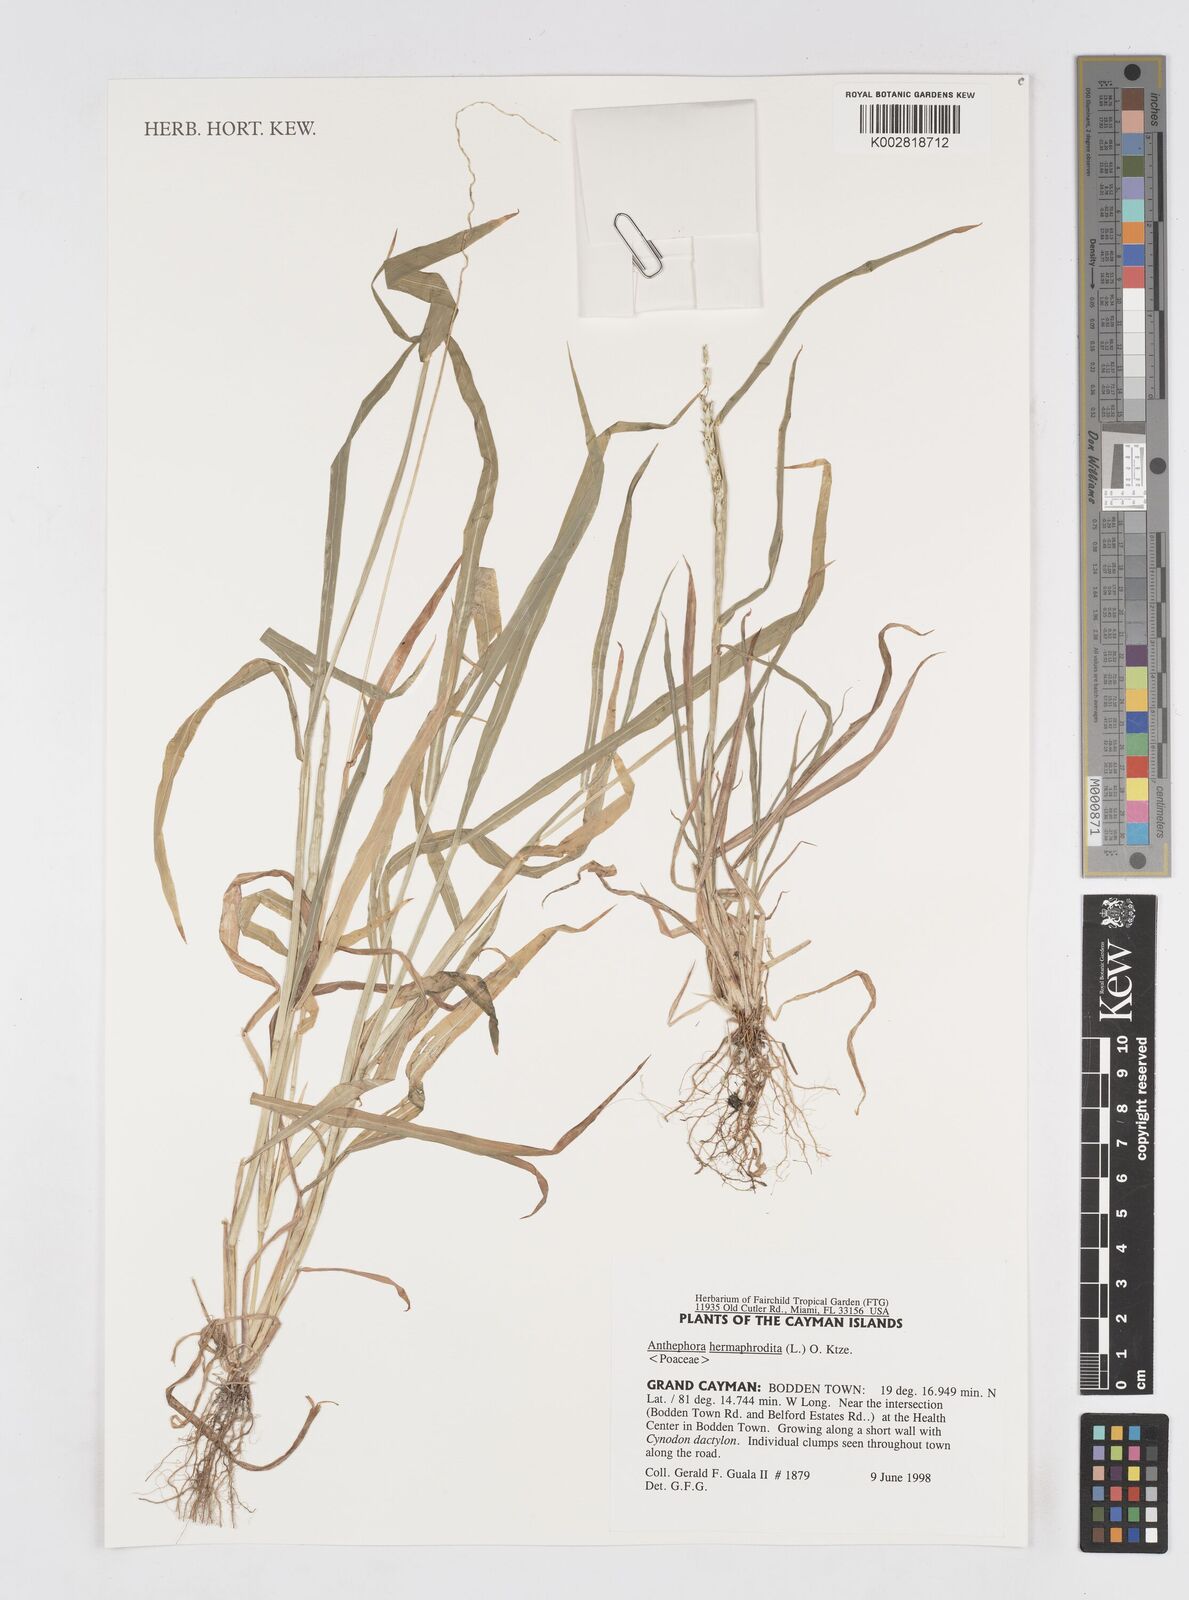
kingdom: Plantae
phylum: Tracheophyta
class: Liliopsida
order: Poales
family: Poaceae
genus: Anthephora
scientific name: Anthephora hermaphrodita
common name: Oldfield grass
